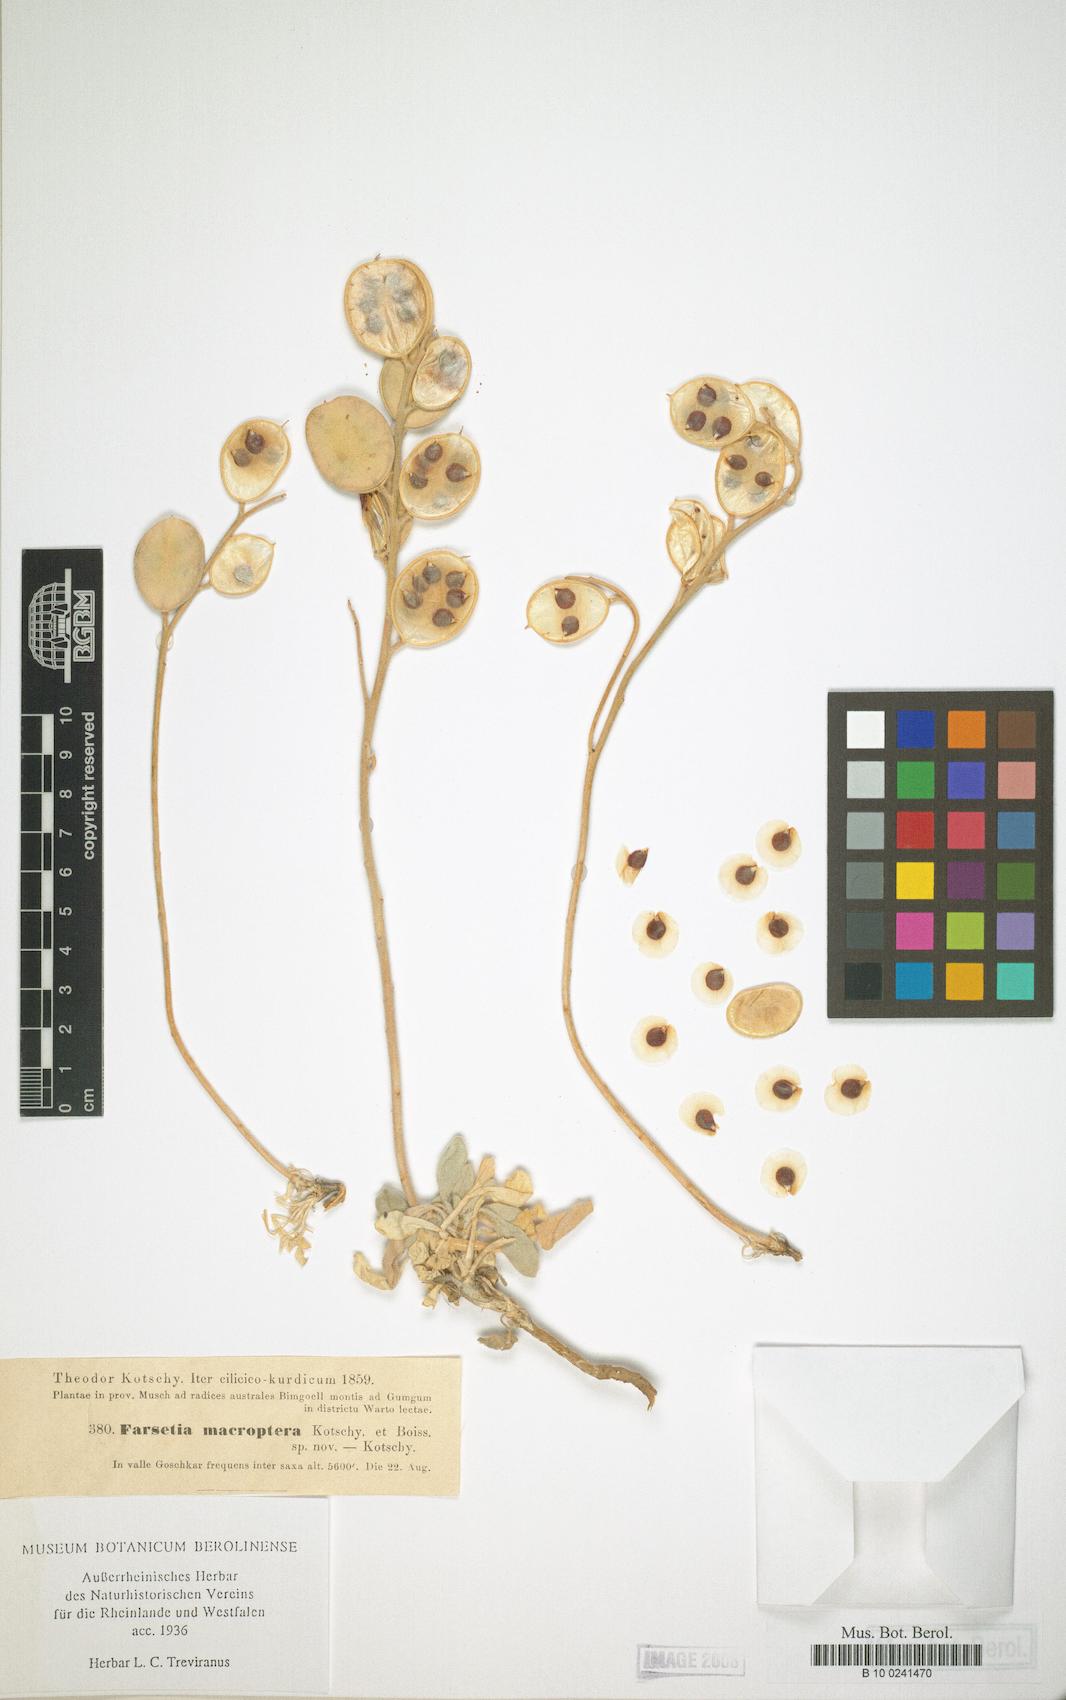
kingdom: Plantae
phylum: Tracheophyta
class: Magnoliopsida
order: Brassicales
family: Brassicaceae
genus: Fibigia
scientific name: Fibigia macrocarpa
